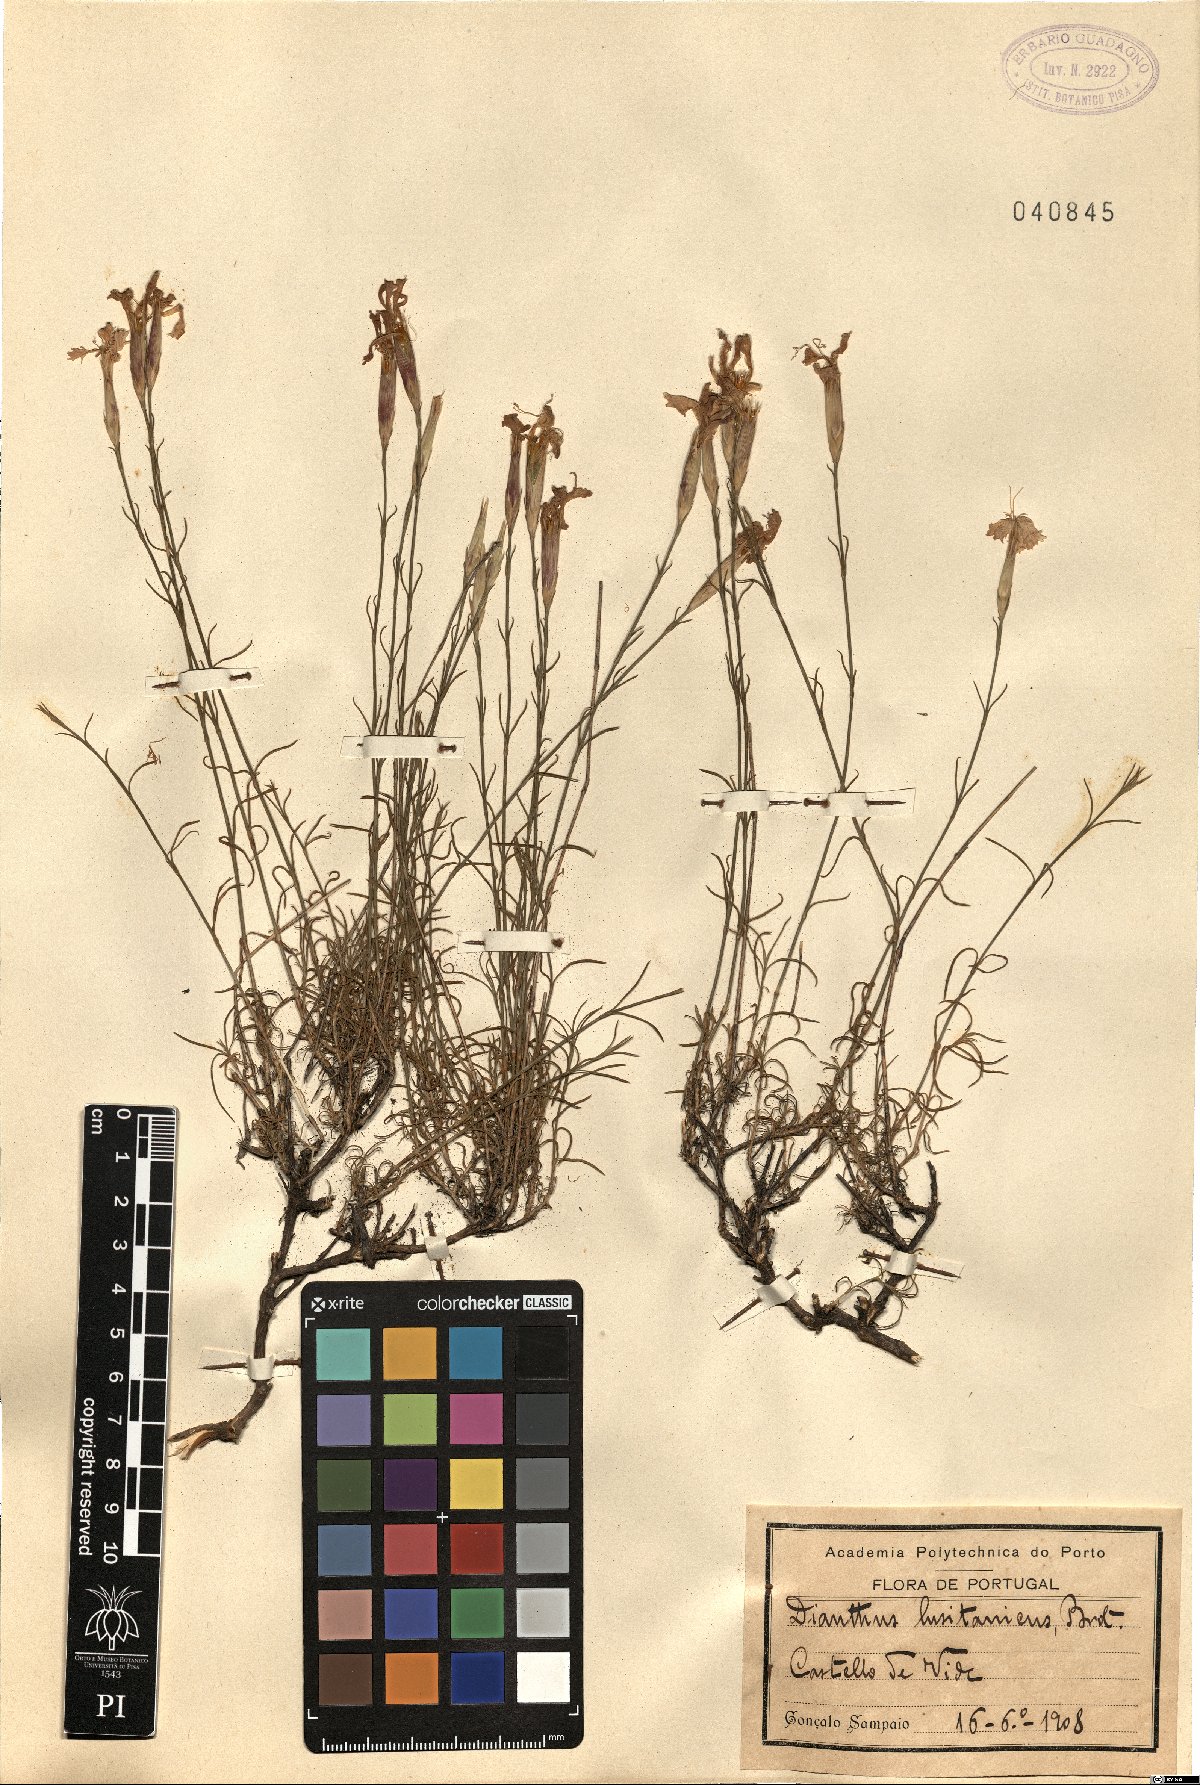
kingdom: Plantae
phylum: Tracheophyta
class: Magnoliopsida
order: Caryophyllales
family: Caryophyllaceae
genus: Dianthus
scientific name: Dianthus lusitanus
